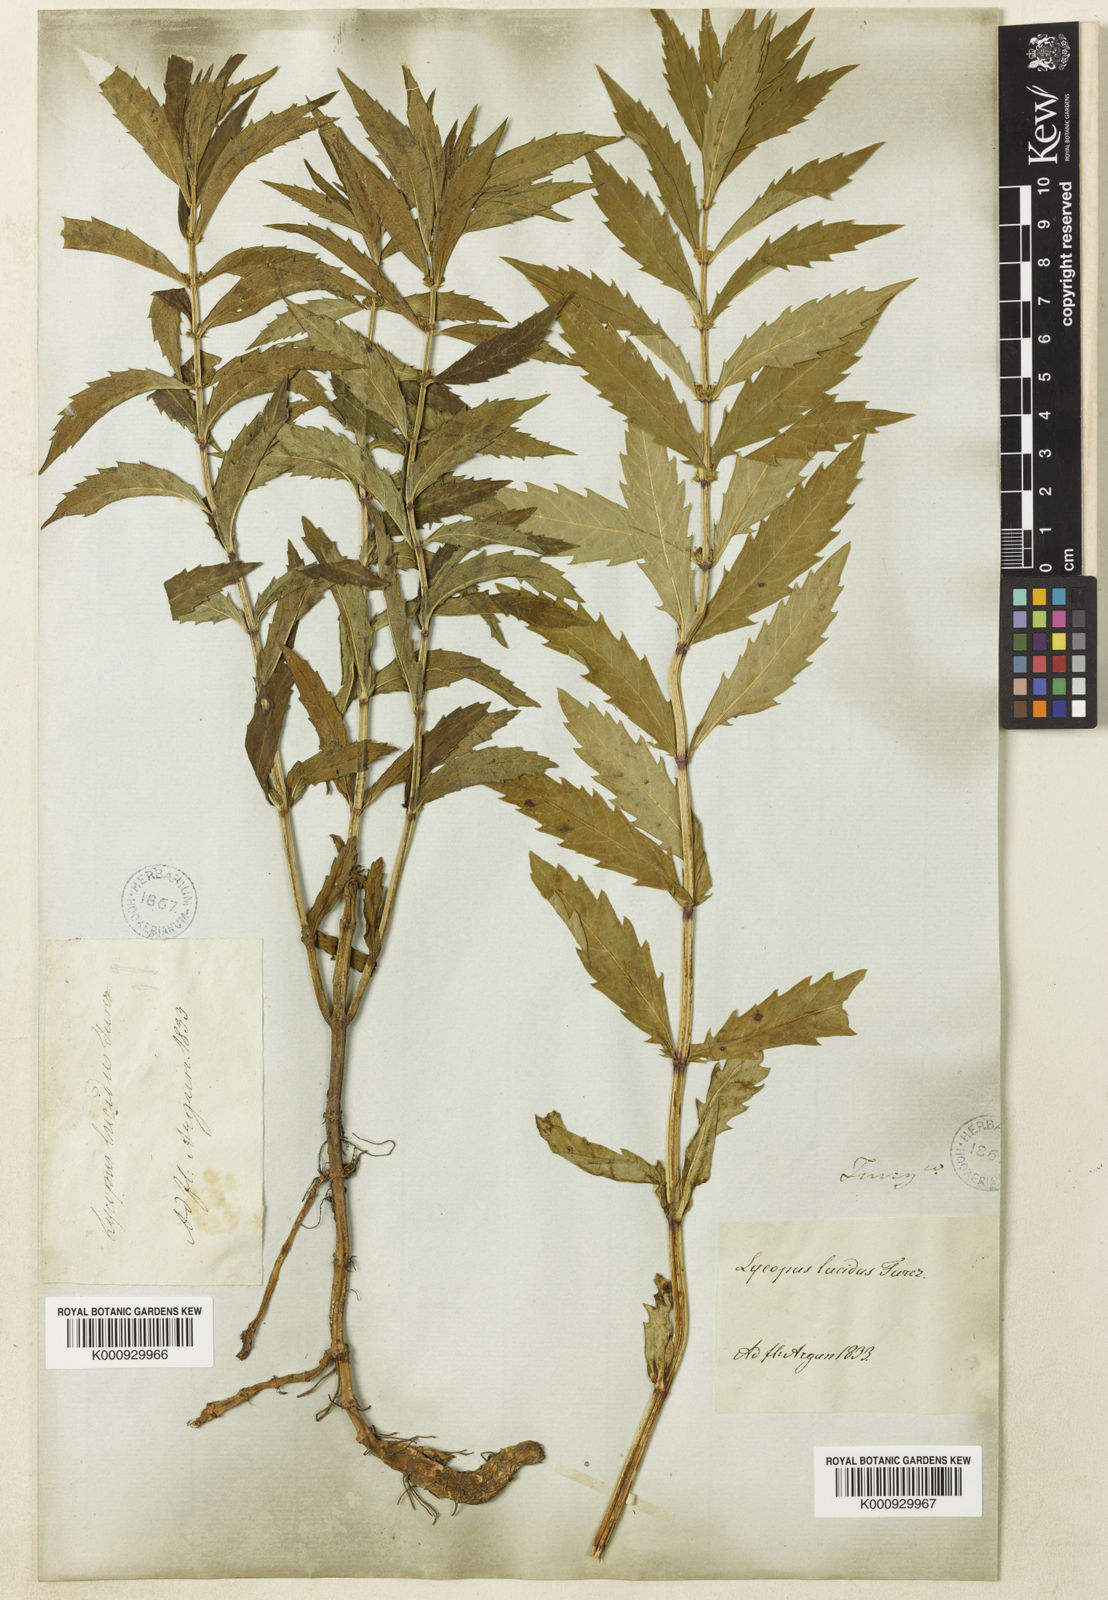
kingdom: Plantae
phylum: Tracheophyta
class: Magnoliopsida
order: Lamiales
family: Lamiaceae
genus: Lycopus
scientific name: Lycopus lucidus
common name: Shiny bugleweed
